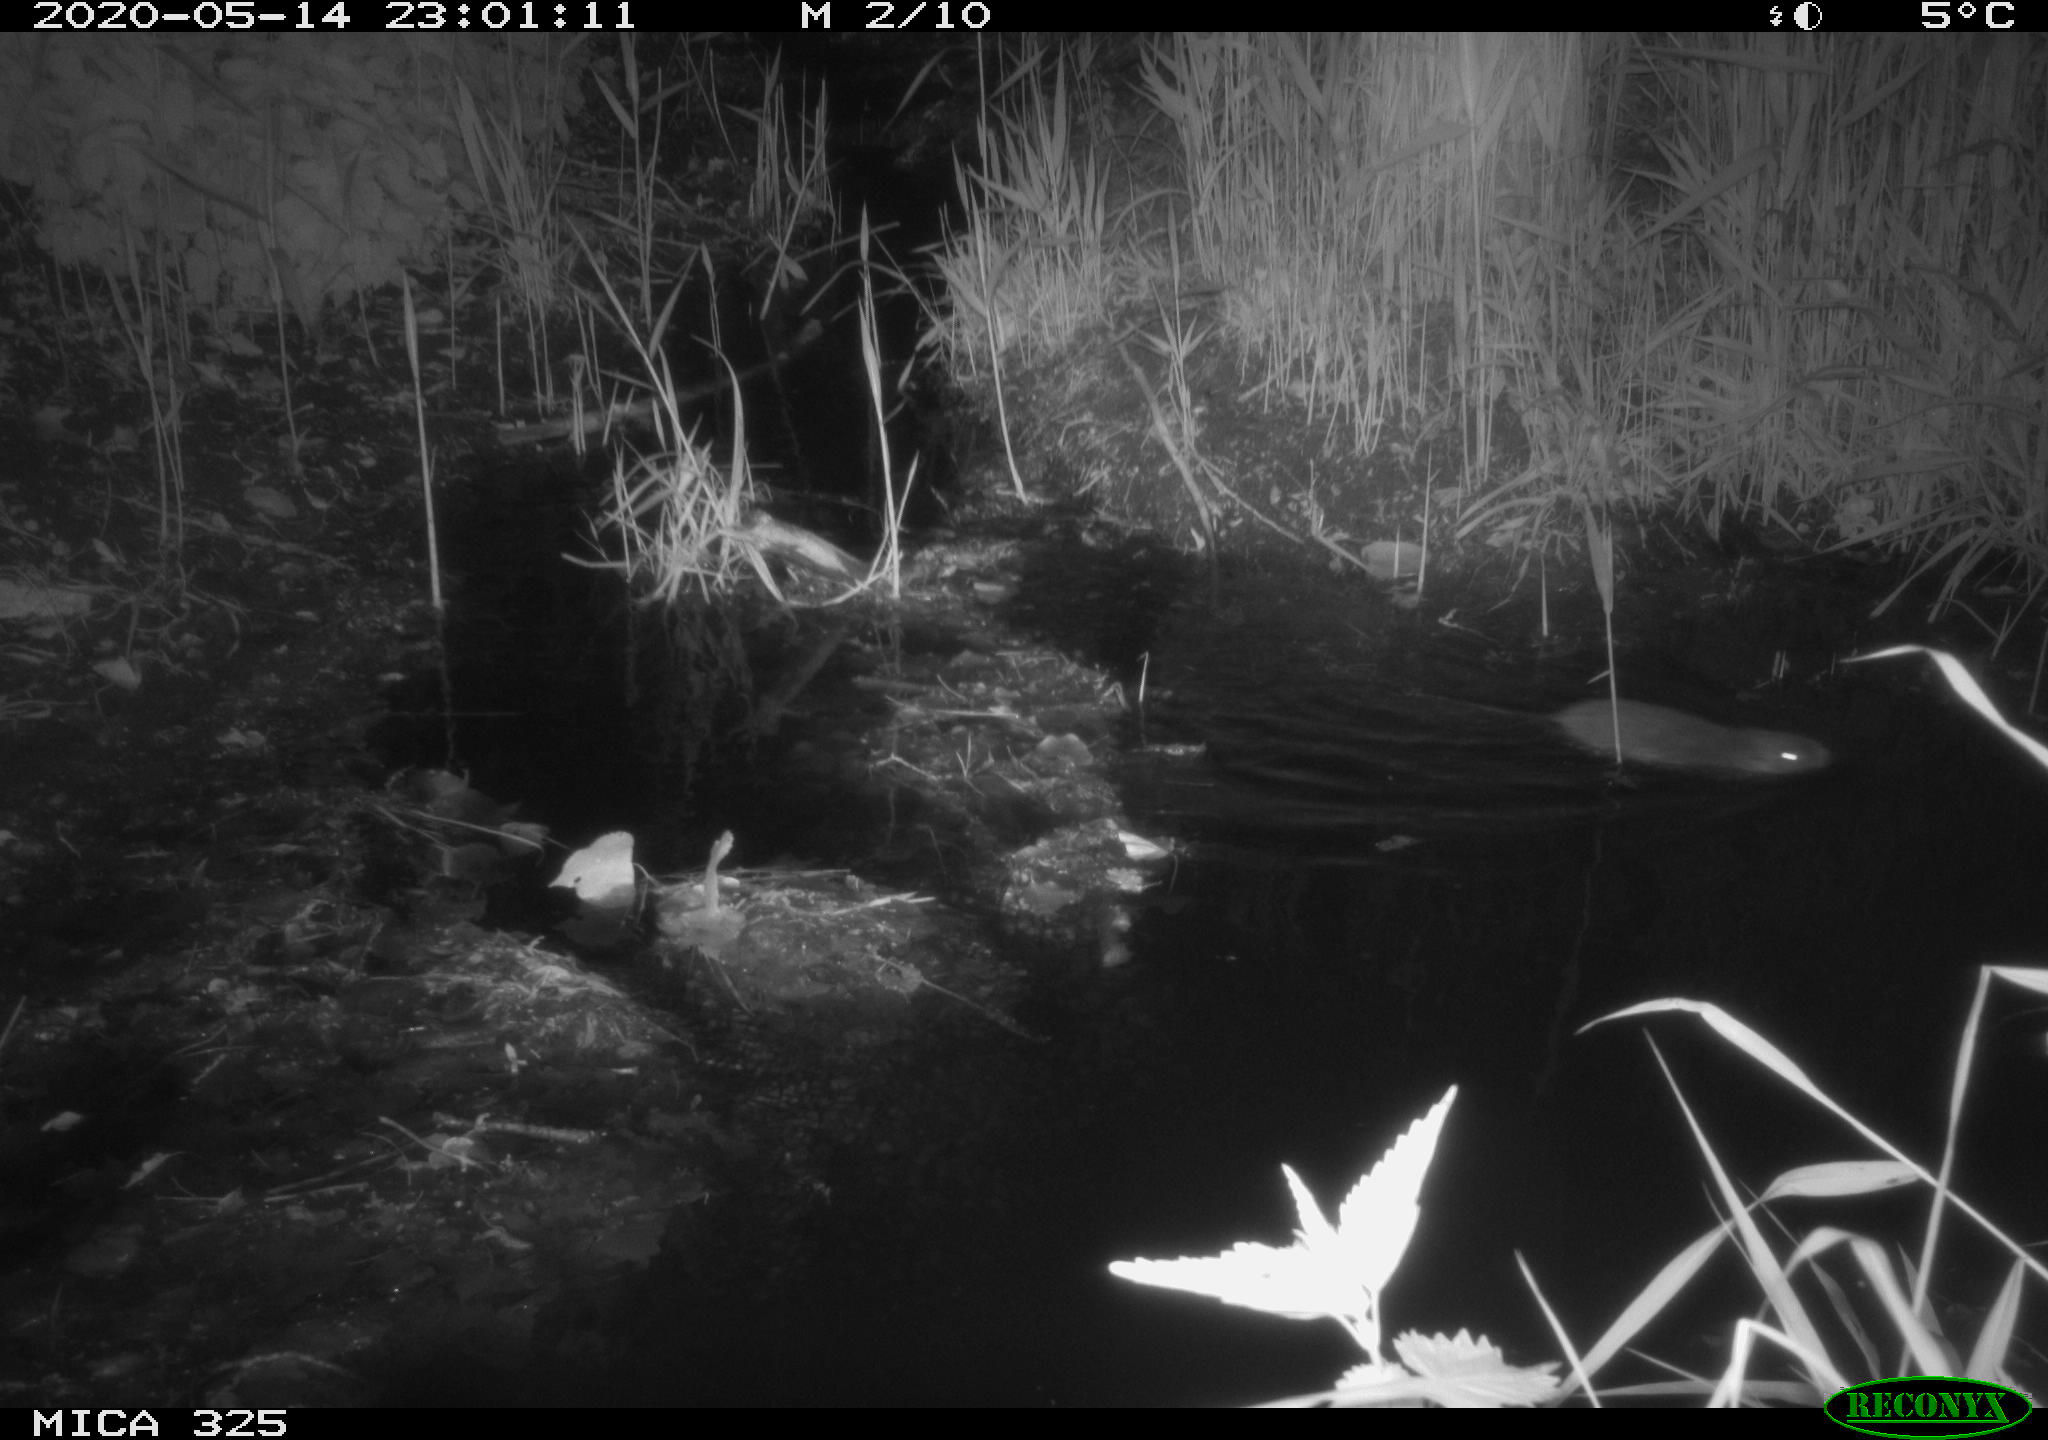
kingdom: Animalia
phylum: Chordata
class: Mammalia
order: Rodentia
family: Myocastoridae
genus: Myocastor
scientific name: Myocastor coypus
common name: Coypu
